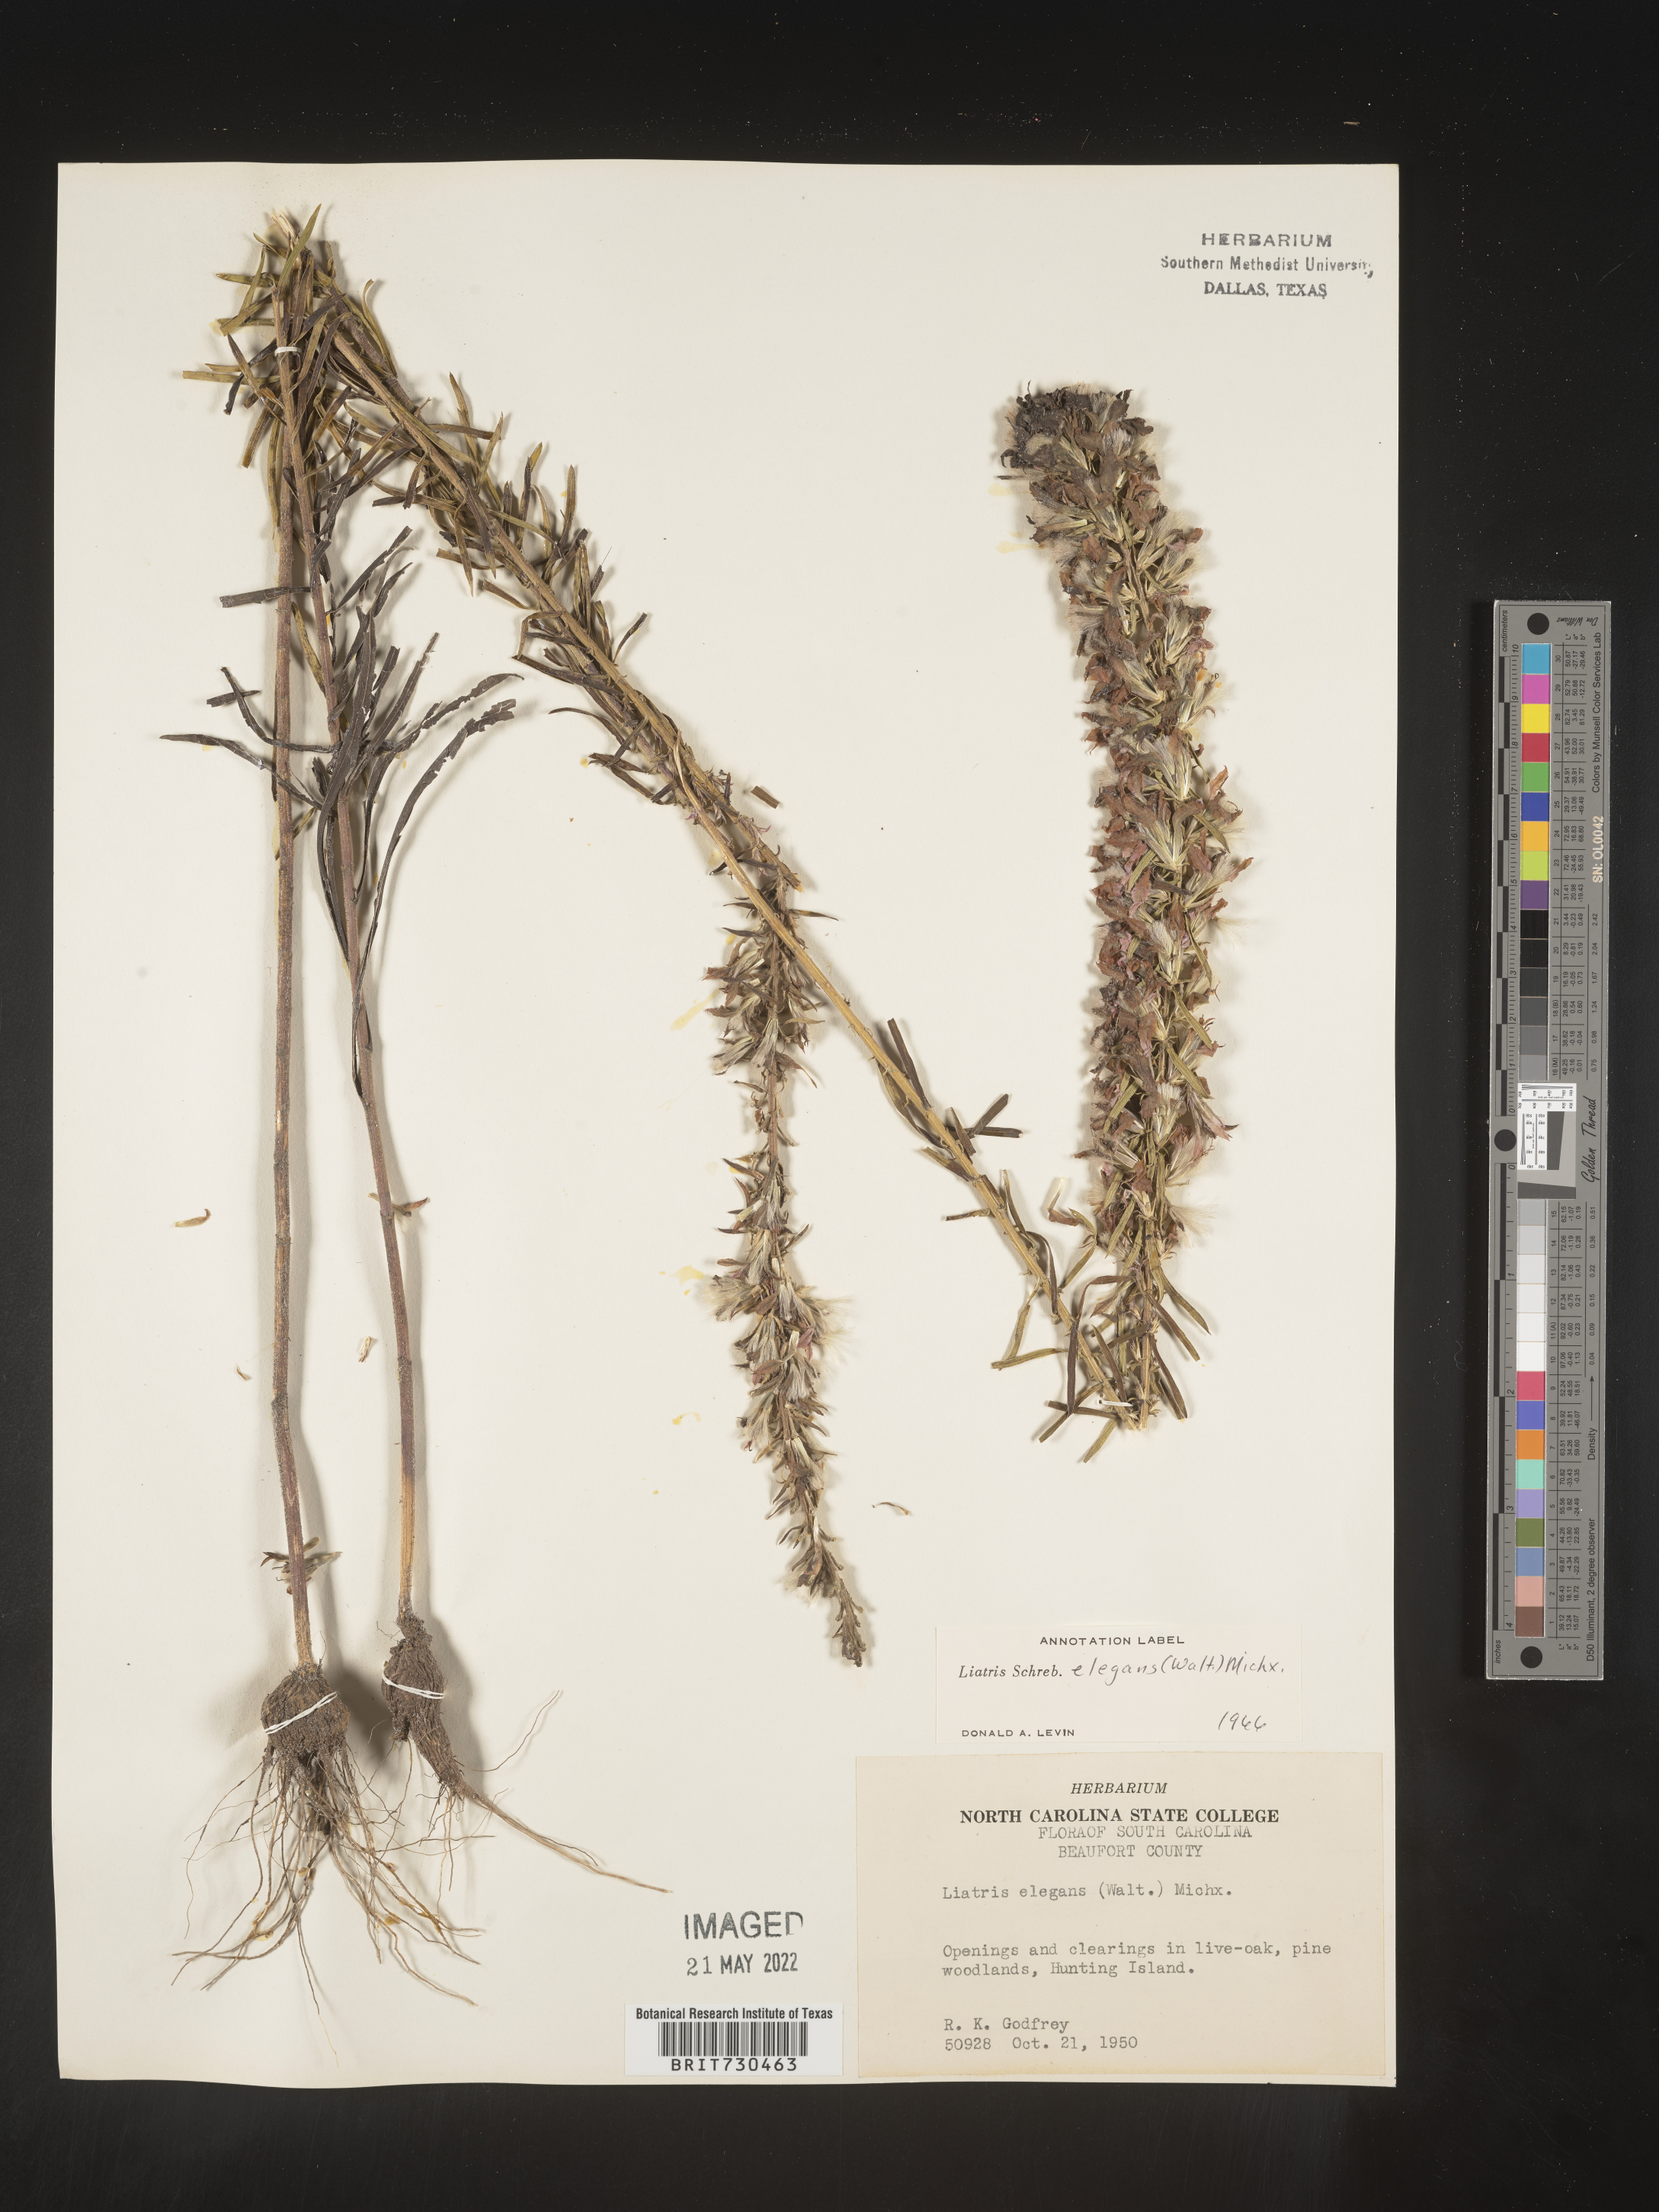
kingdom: Plantae
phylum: Tracheophyta
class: Magnoliopsida
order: Asterales
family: Asteraceae
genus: Liatris
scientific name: Liatris elegans
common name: Pinkscale gayfeather
